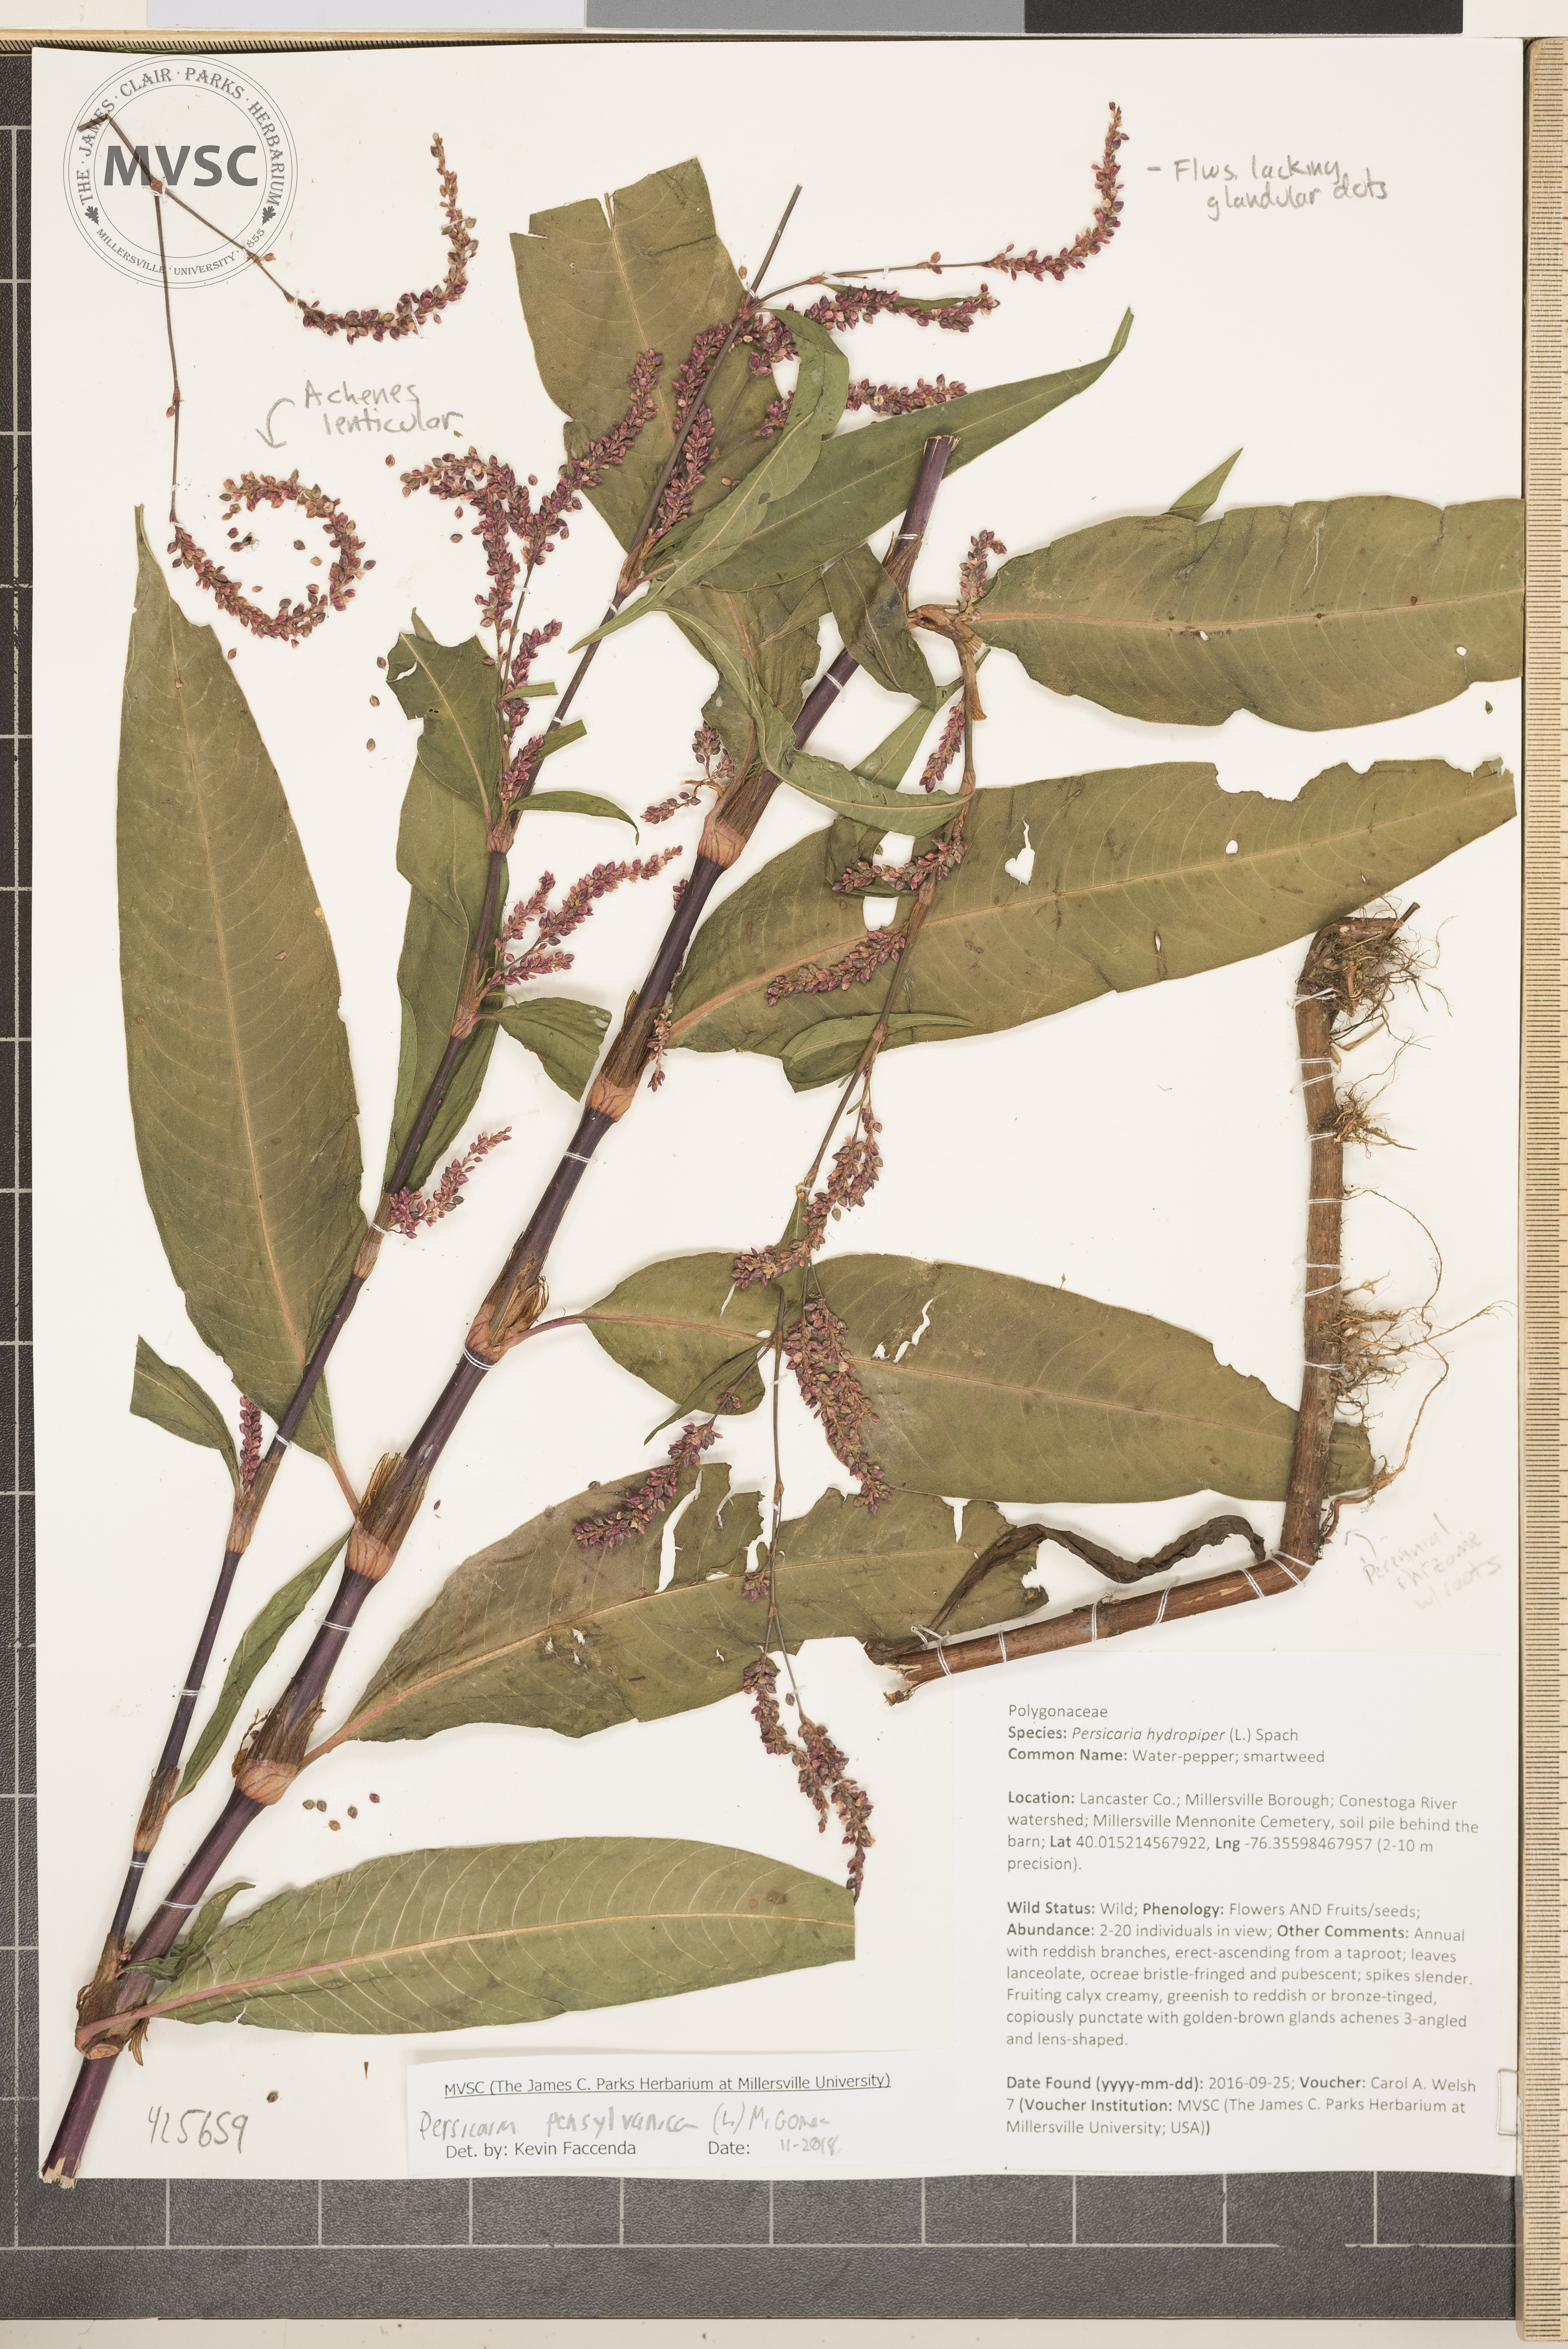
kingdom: Plantae
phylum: Tracheophyta
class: Magnoliopsida
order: Caryophyllales
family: Polygonaceae
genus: Persicaria
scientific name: Persicaria pensylvanica
